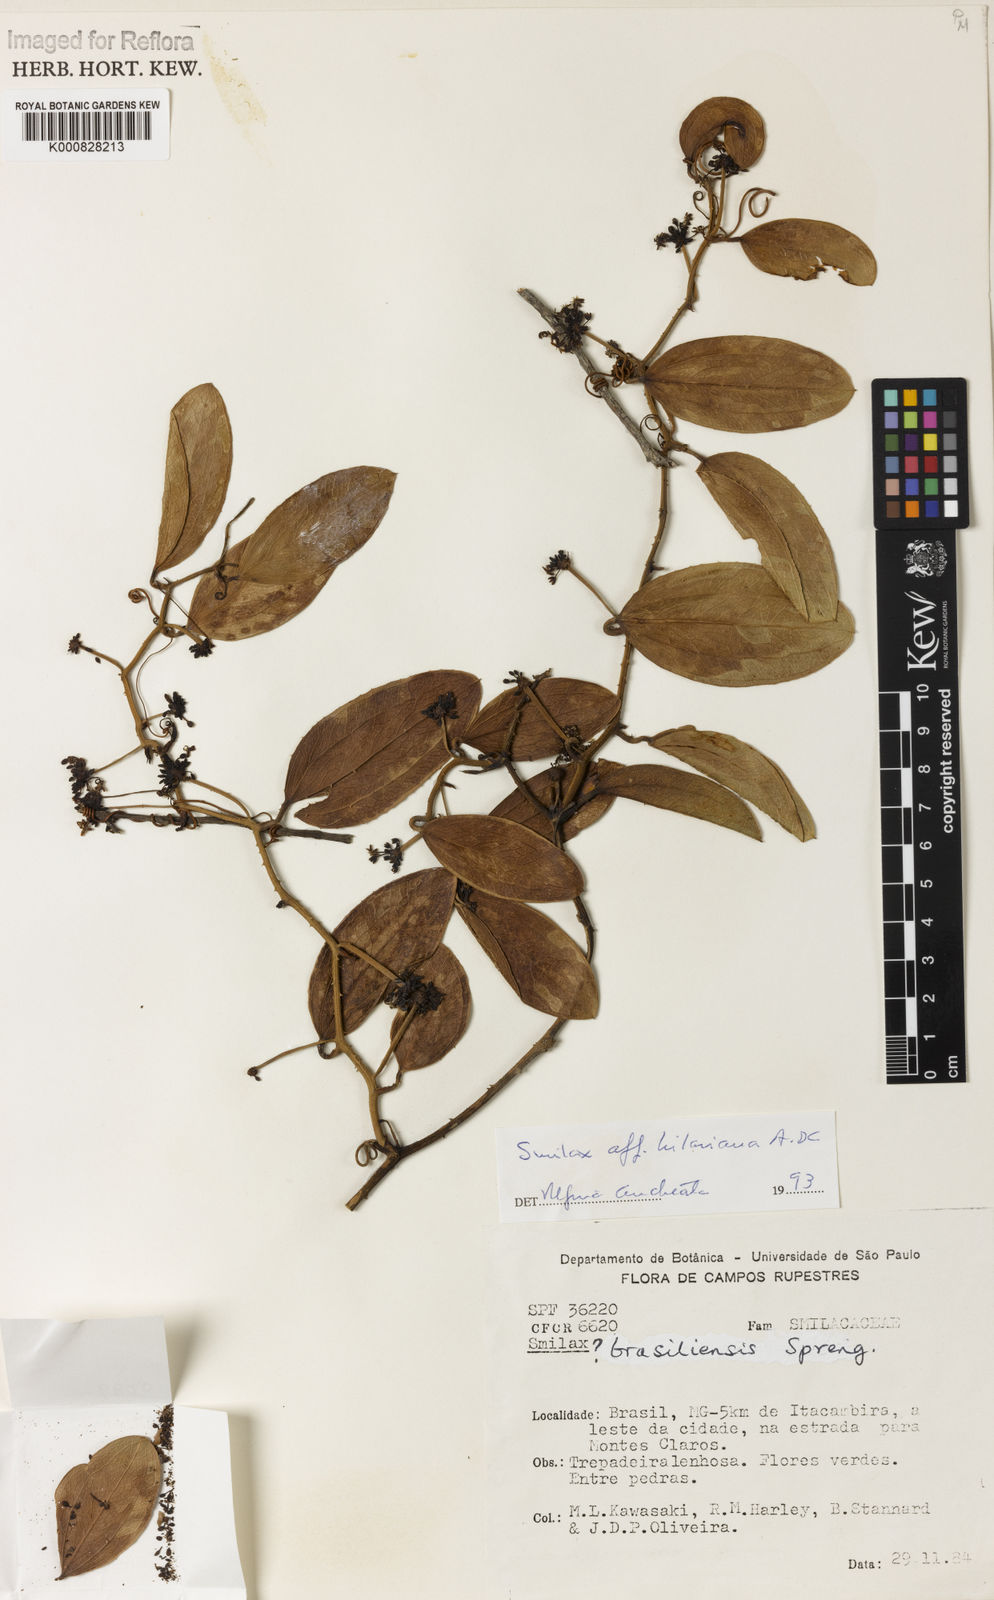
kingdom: Plantae
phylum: Tracheophyta
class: Liliopsida
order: Liliales
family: Smilacaceae
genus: Smilax
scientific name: Smilax hilariana
